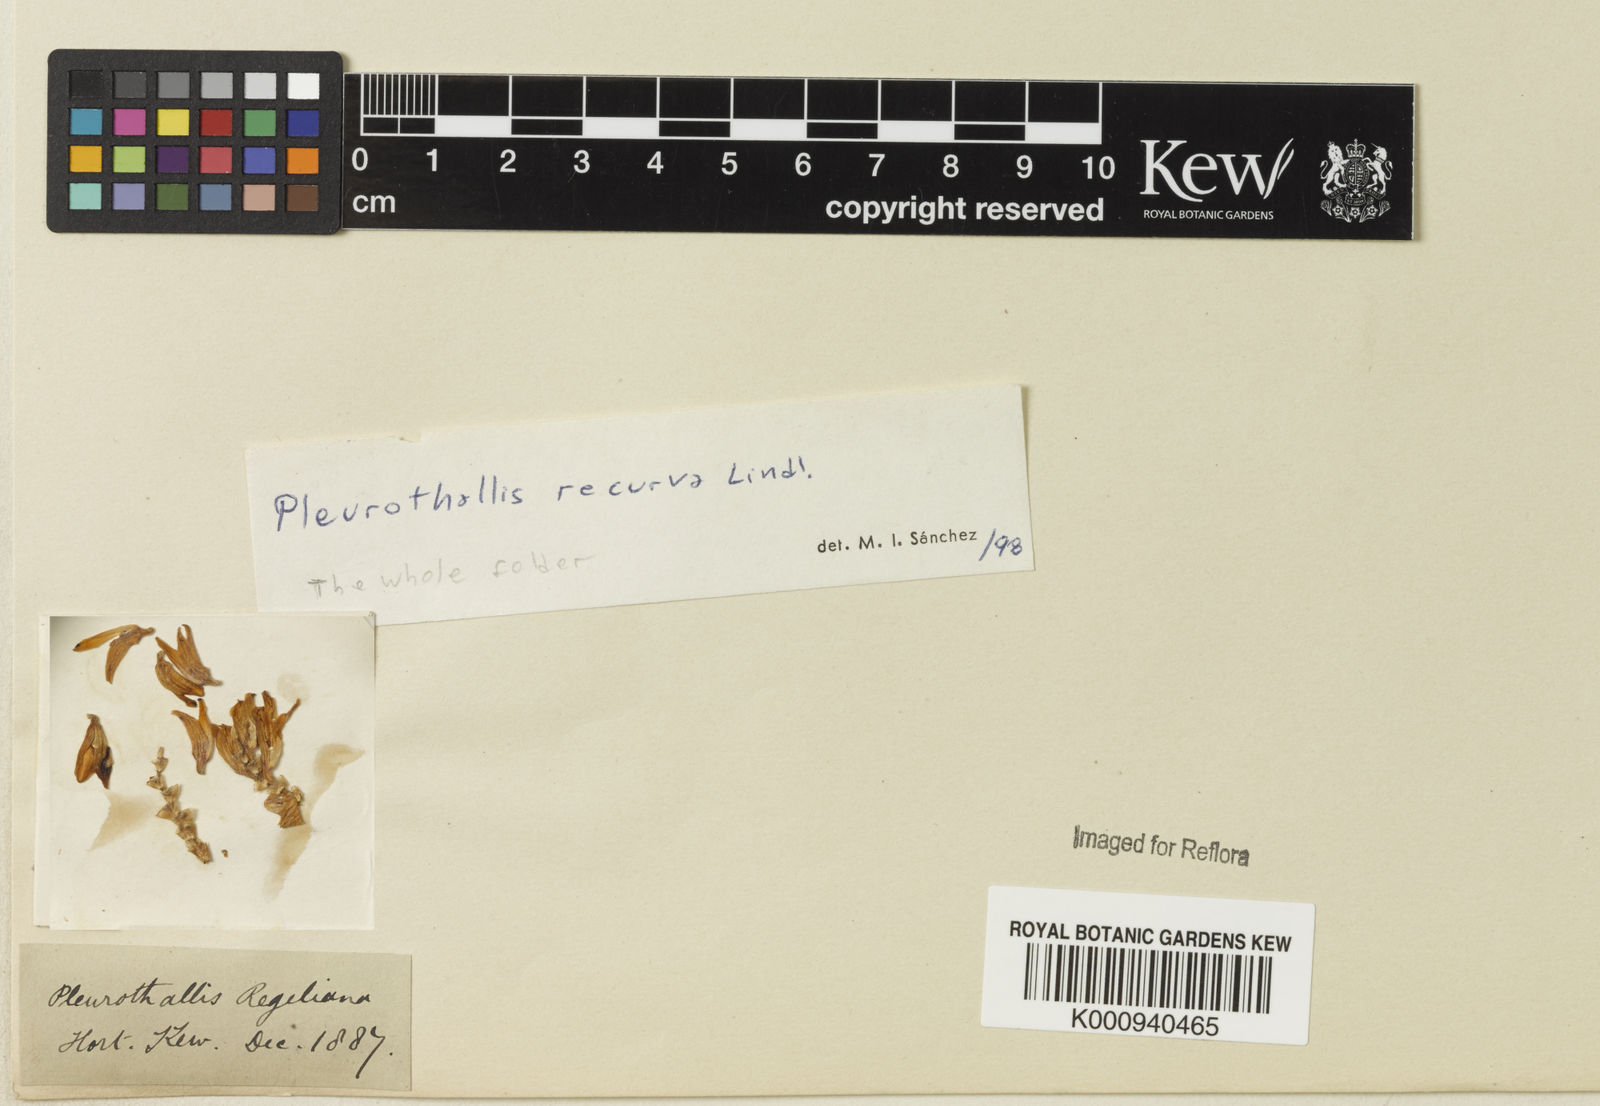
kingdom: Plantae
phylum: Tracheophyta
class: Liliopsida
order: Asparagales
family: Orchidaceae
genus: Acianthera
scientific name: Acianthera recurva
